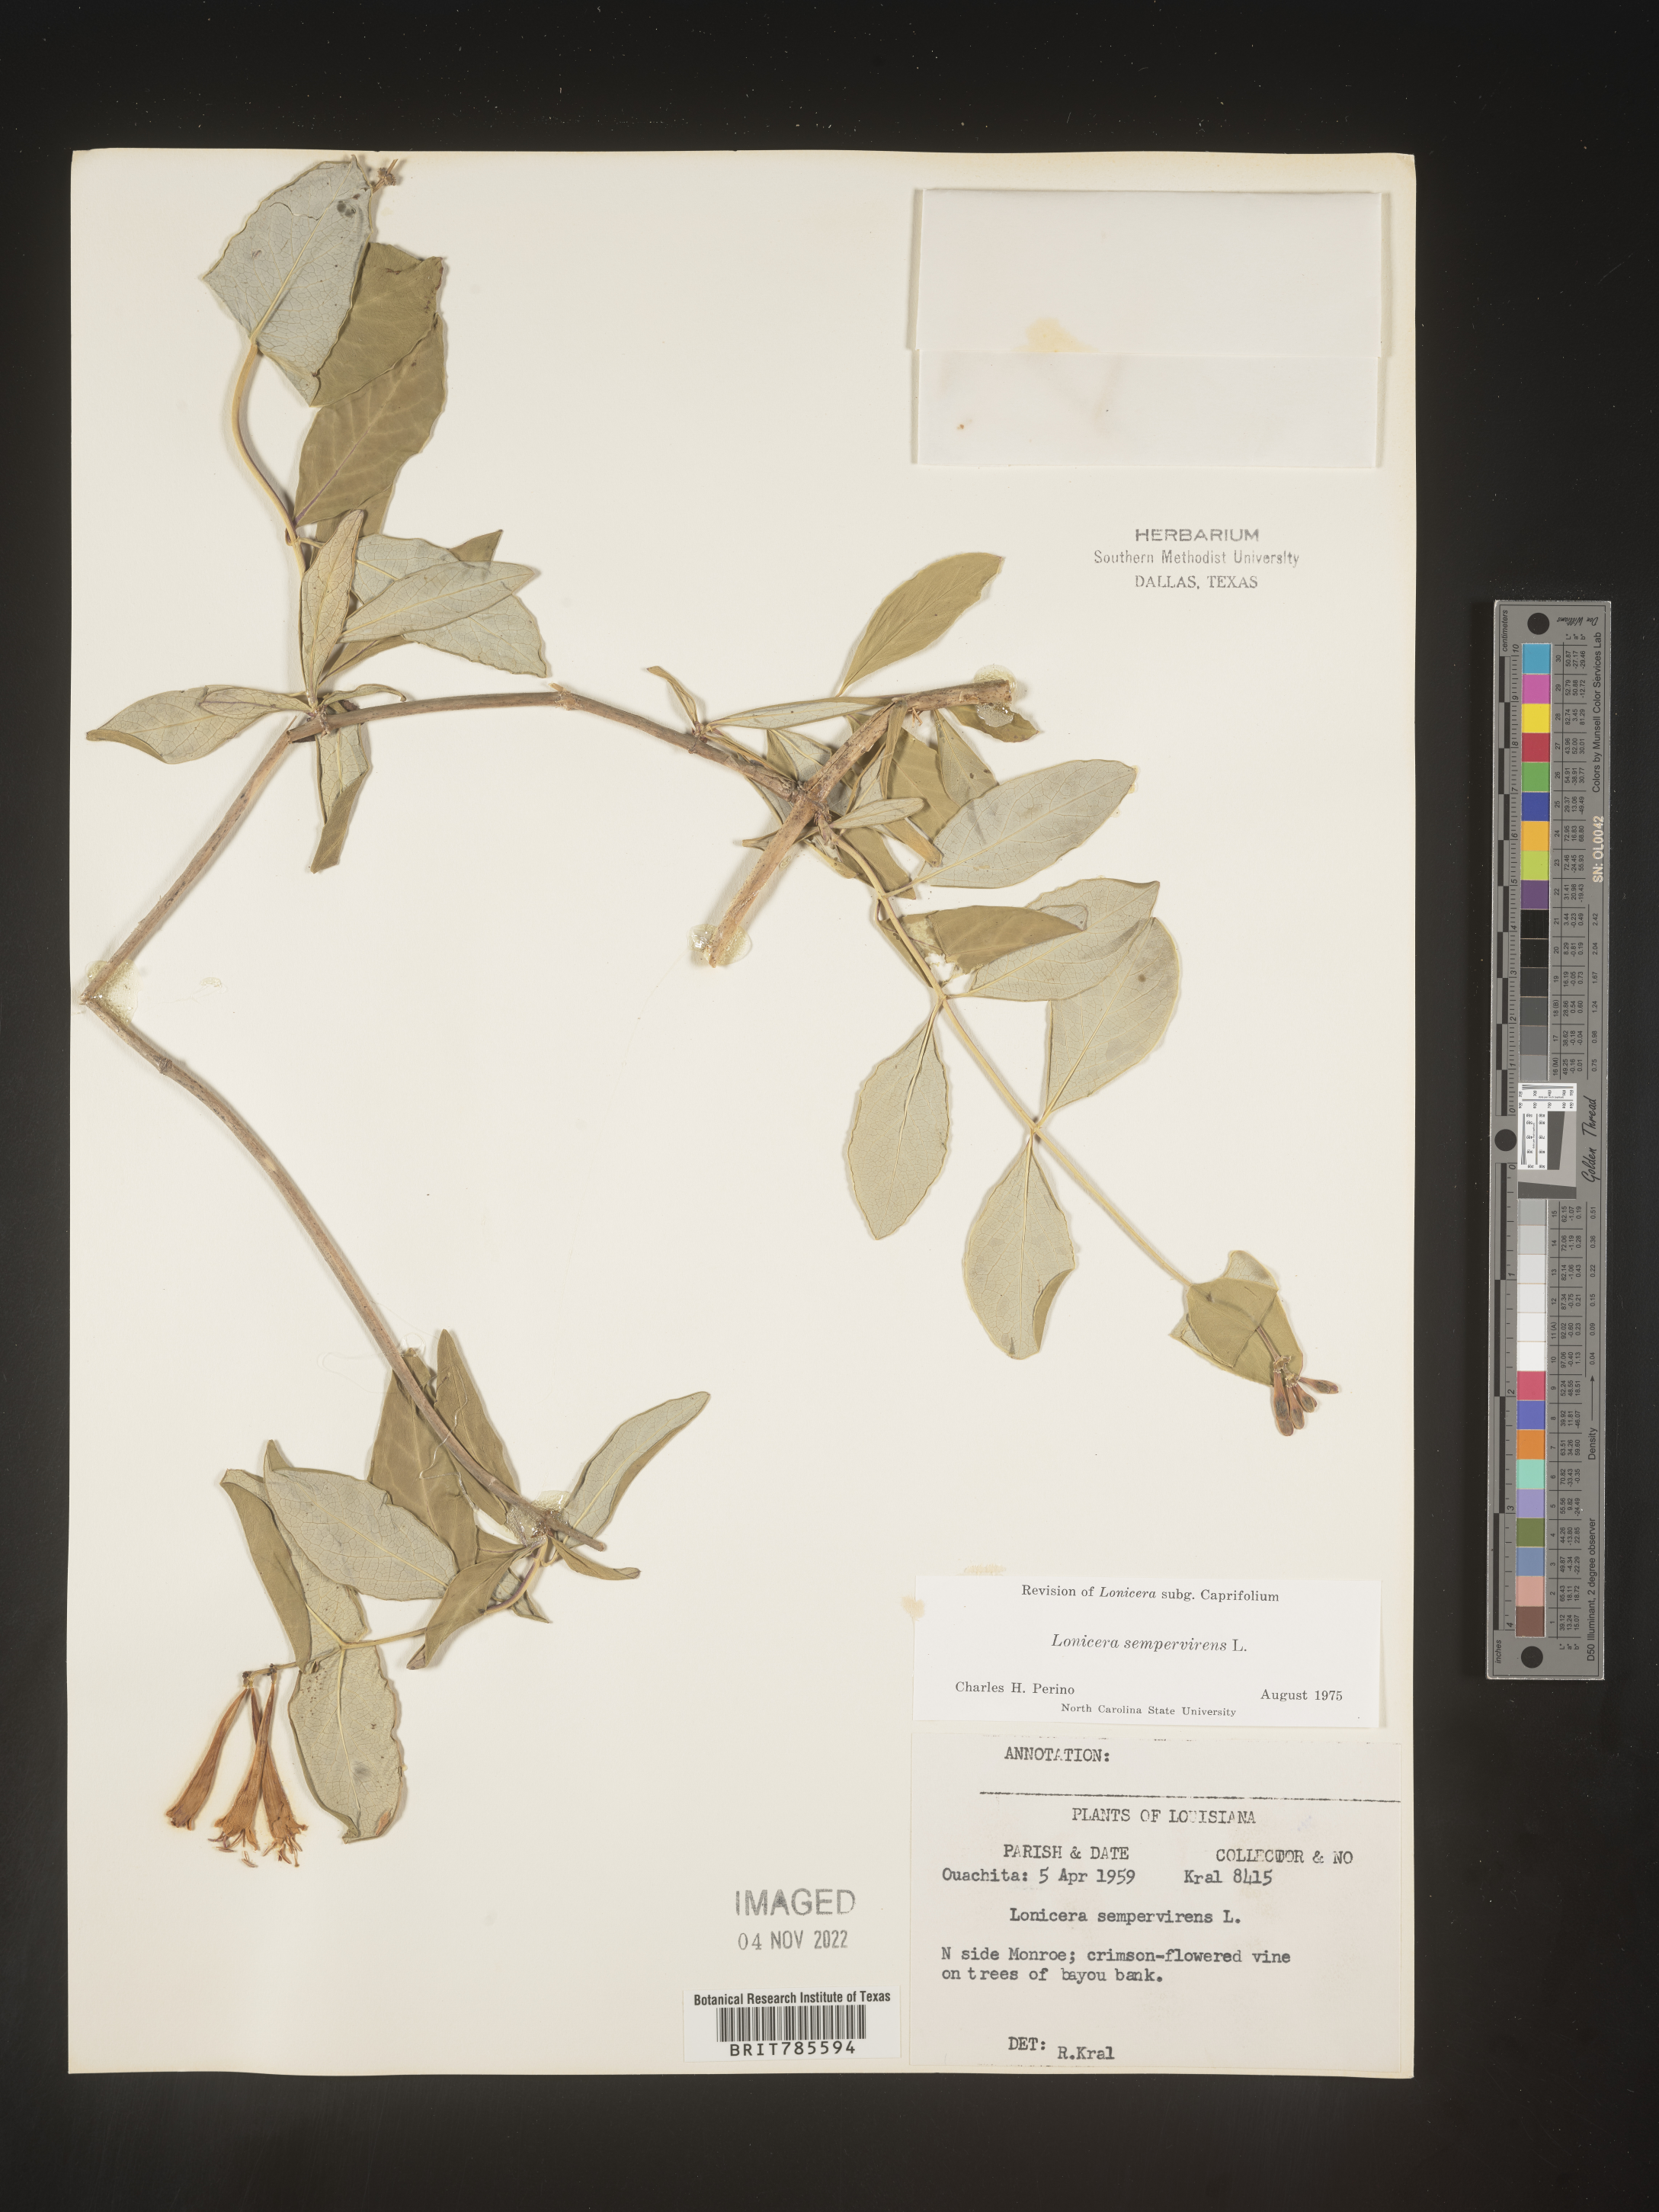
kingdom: Plantae
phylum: Tracheophyta
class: Magnoliopsida
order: Dipsacales
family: Caprifoliaceae
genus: Lonicera
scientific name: Lonicera sempervirens
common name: Coral honeysuckle
